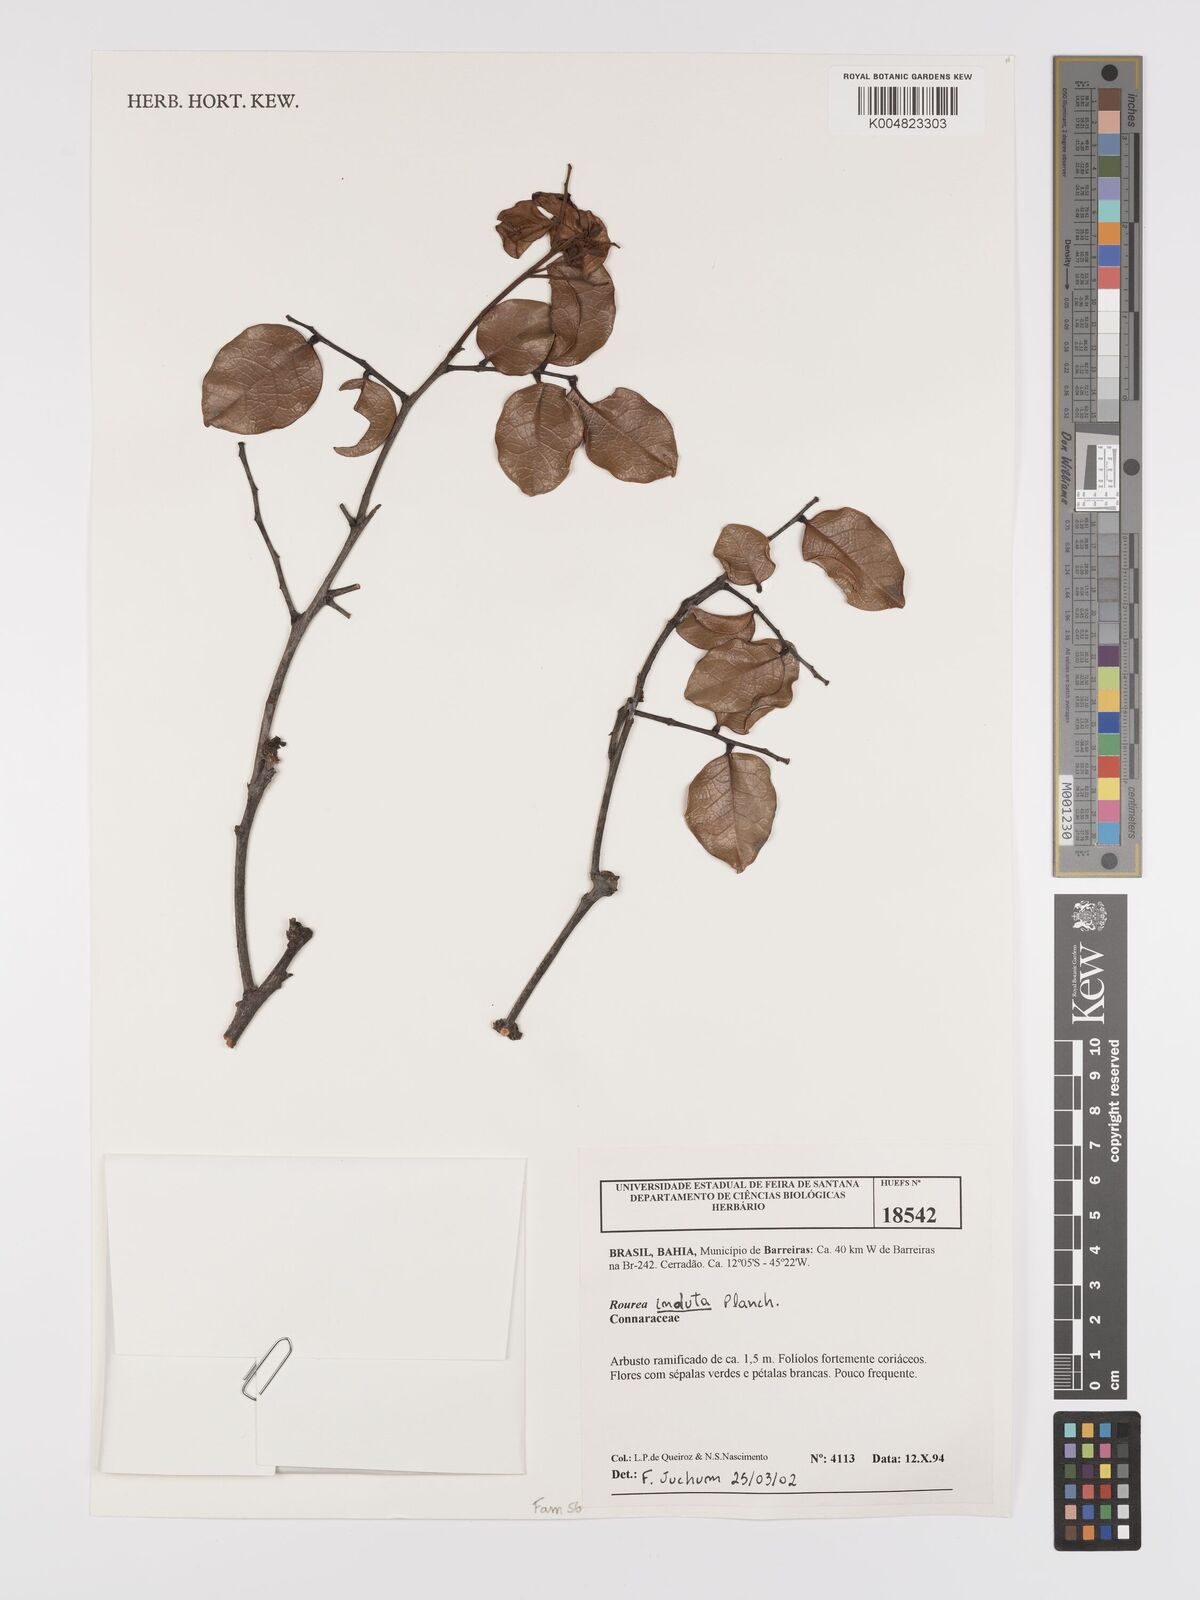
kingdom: Plantae
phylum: Tracheophyta
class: Magnoliopsida
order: Oxalidales
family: Connaraceae
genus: Rourea
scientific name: Rourea induta
